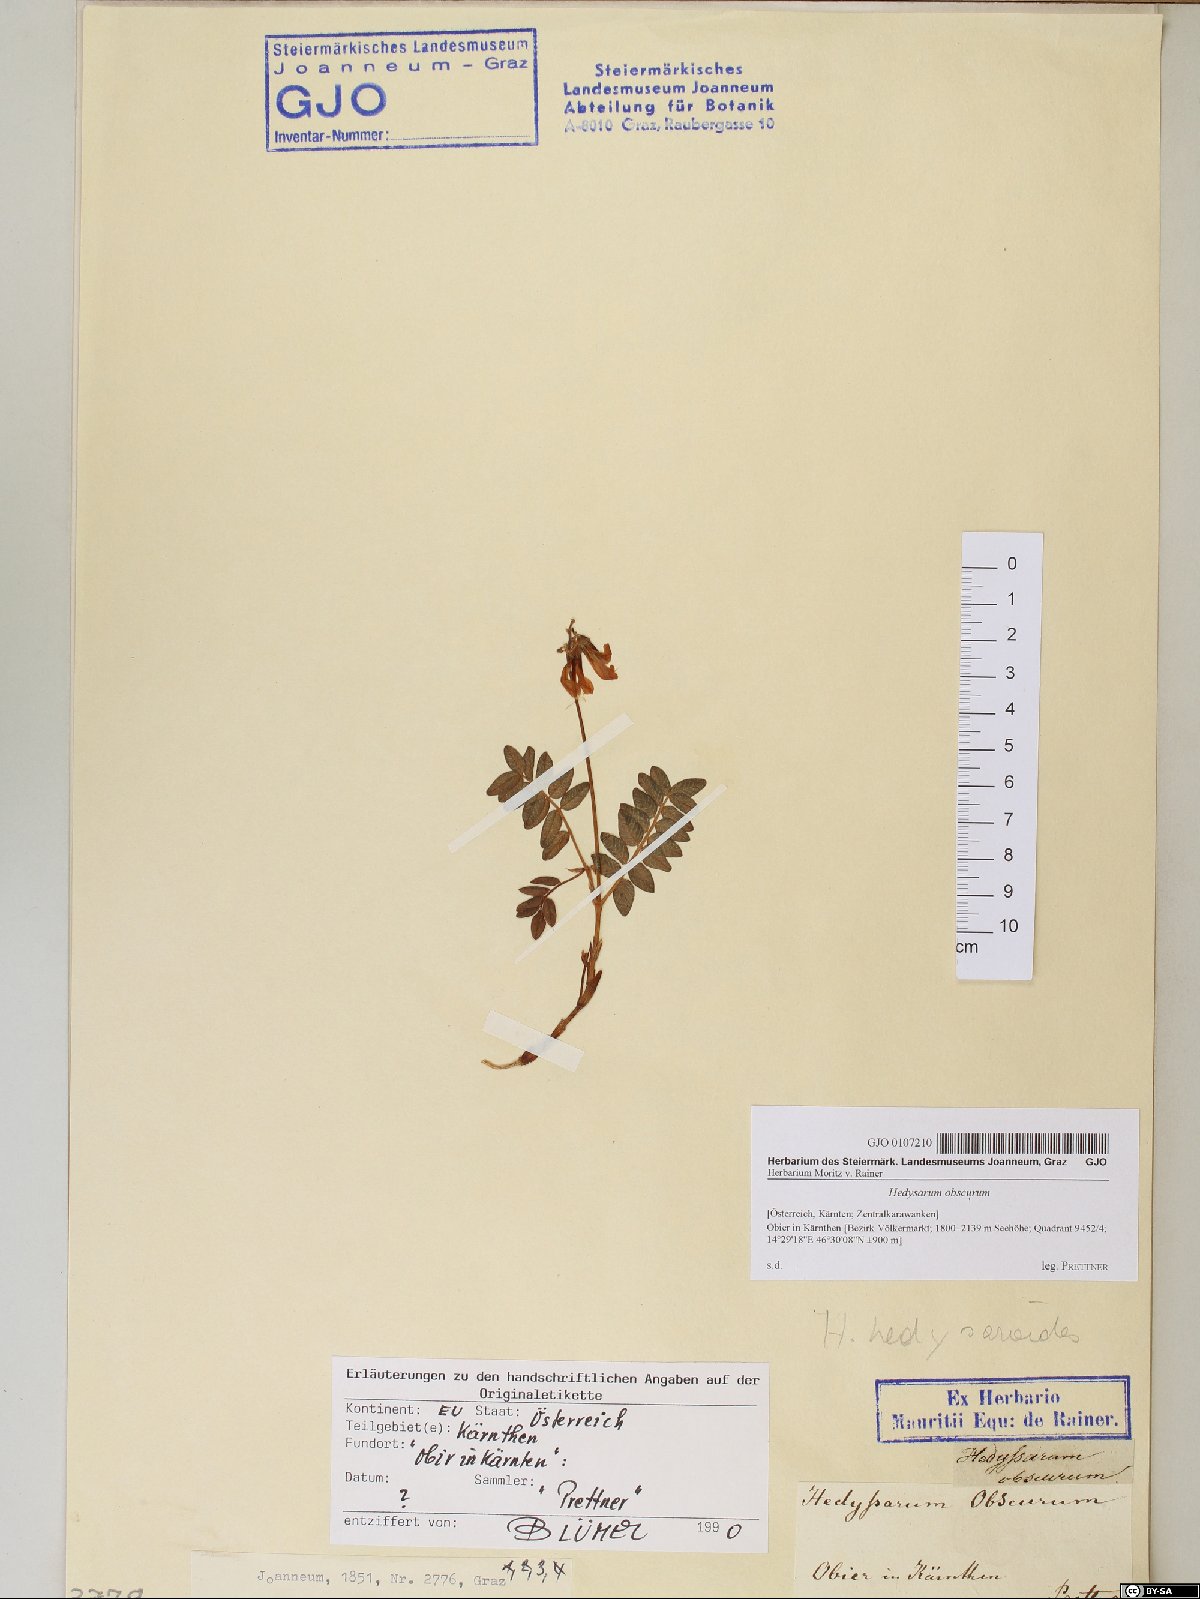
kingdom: Plantae
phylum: Tracheophyta
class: Magnoliopsida
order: Fabales
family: Fabaceae
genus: Hedysarum
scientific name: Hedysarum hedysaroides
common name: Alpine french-honeysuckle
